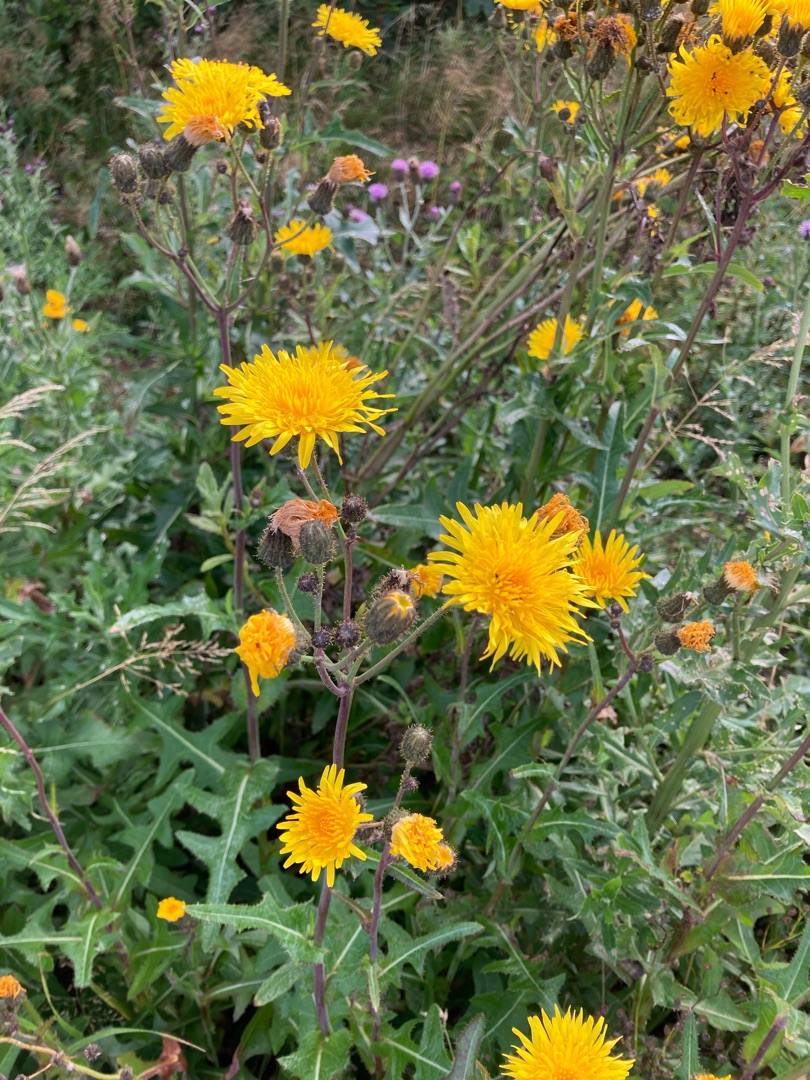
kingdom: Plantae
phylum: Tracheophyta
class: Magnoliopsida
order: Asterales
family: Asteraceae
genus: Sonchus
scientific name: Sonchus arvensis
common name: Ager-svinemælk
